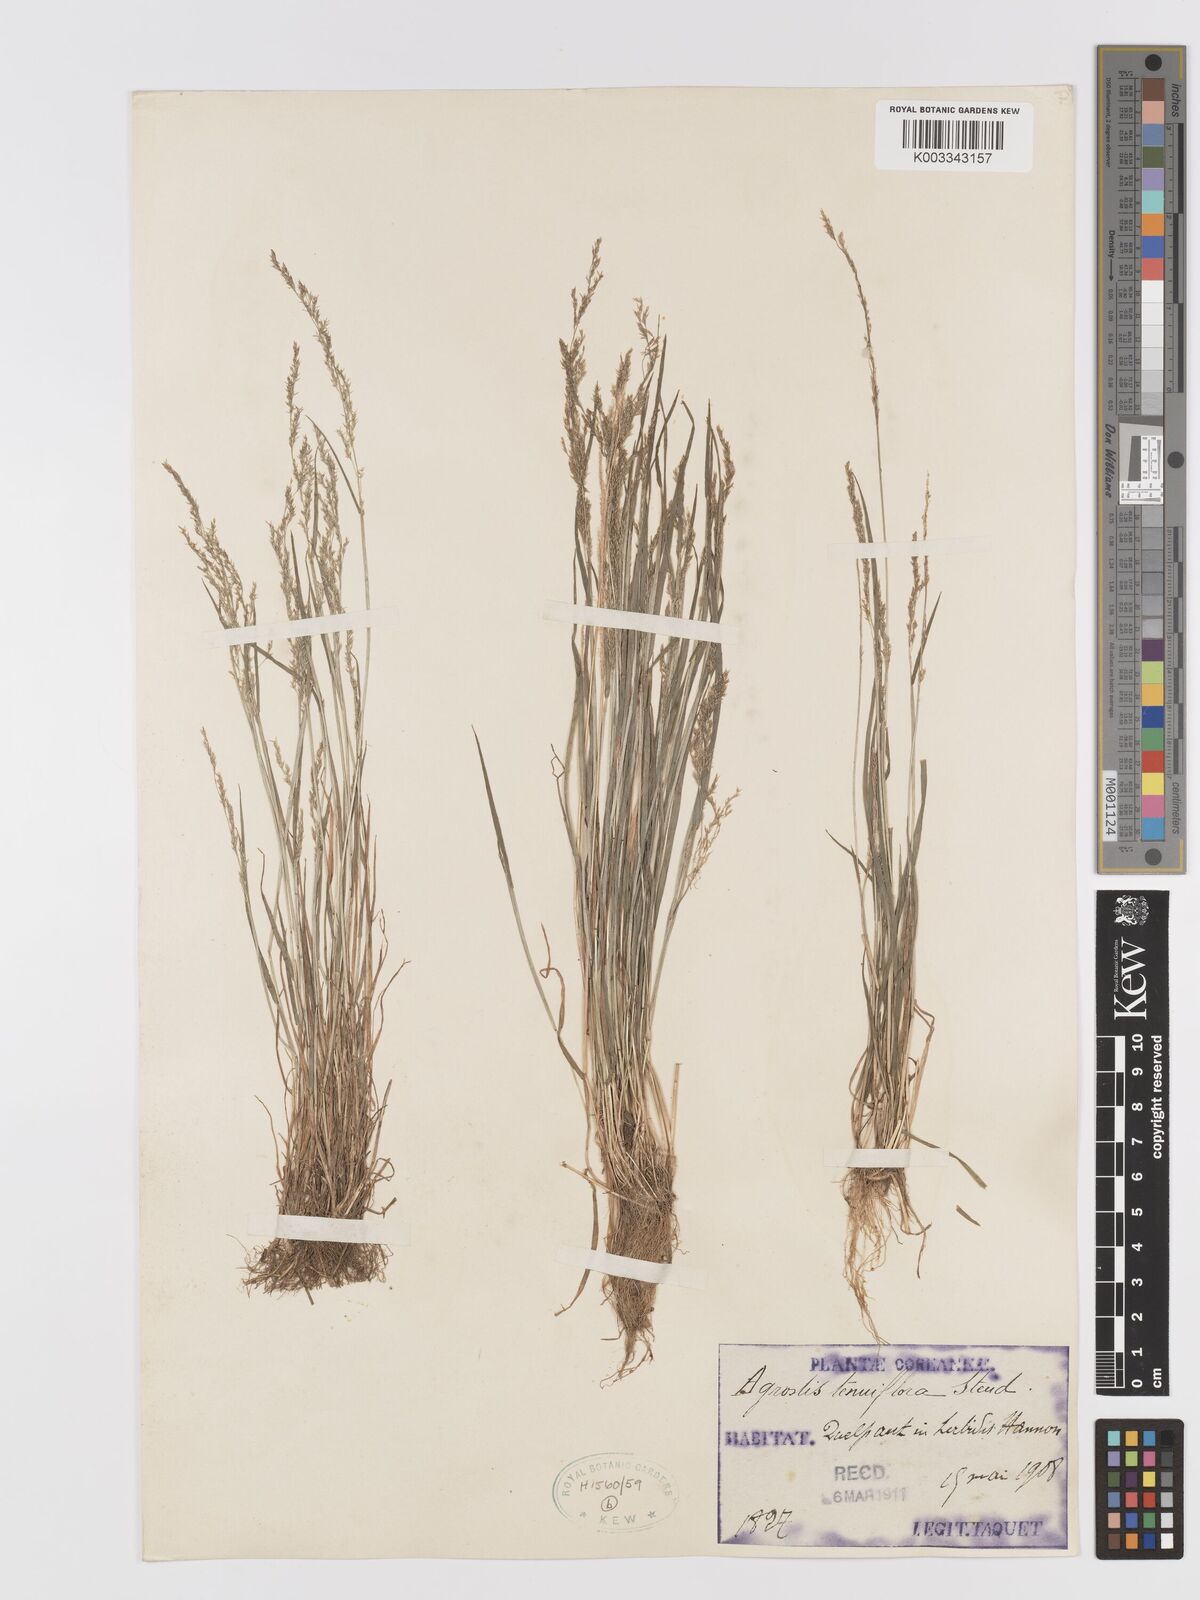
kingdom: Plantae
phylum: Tracheophyta
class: Liliopsida
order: Poales
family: Poaceae
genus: Agrostis
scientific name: Agrostis clavata
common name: Clavate bent
